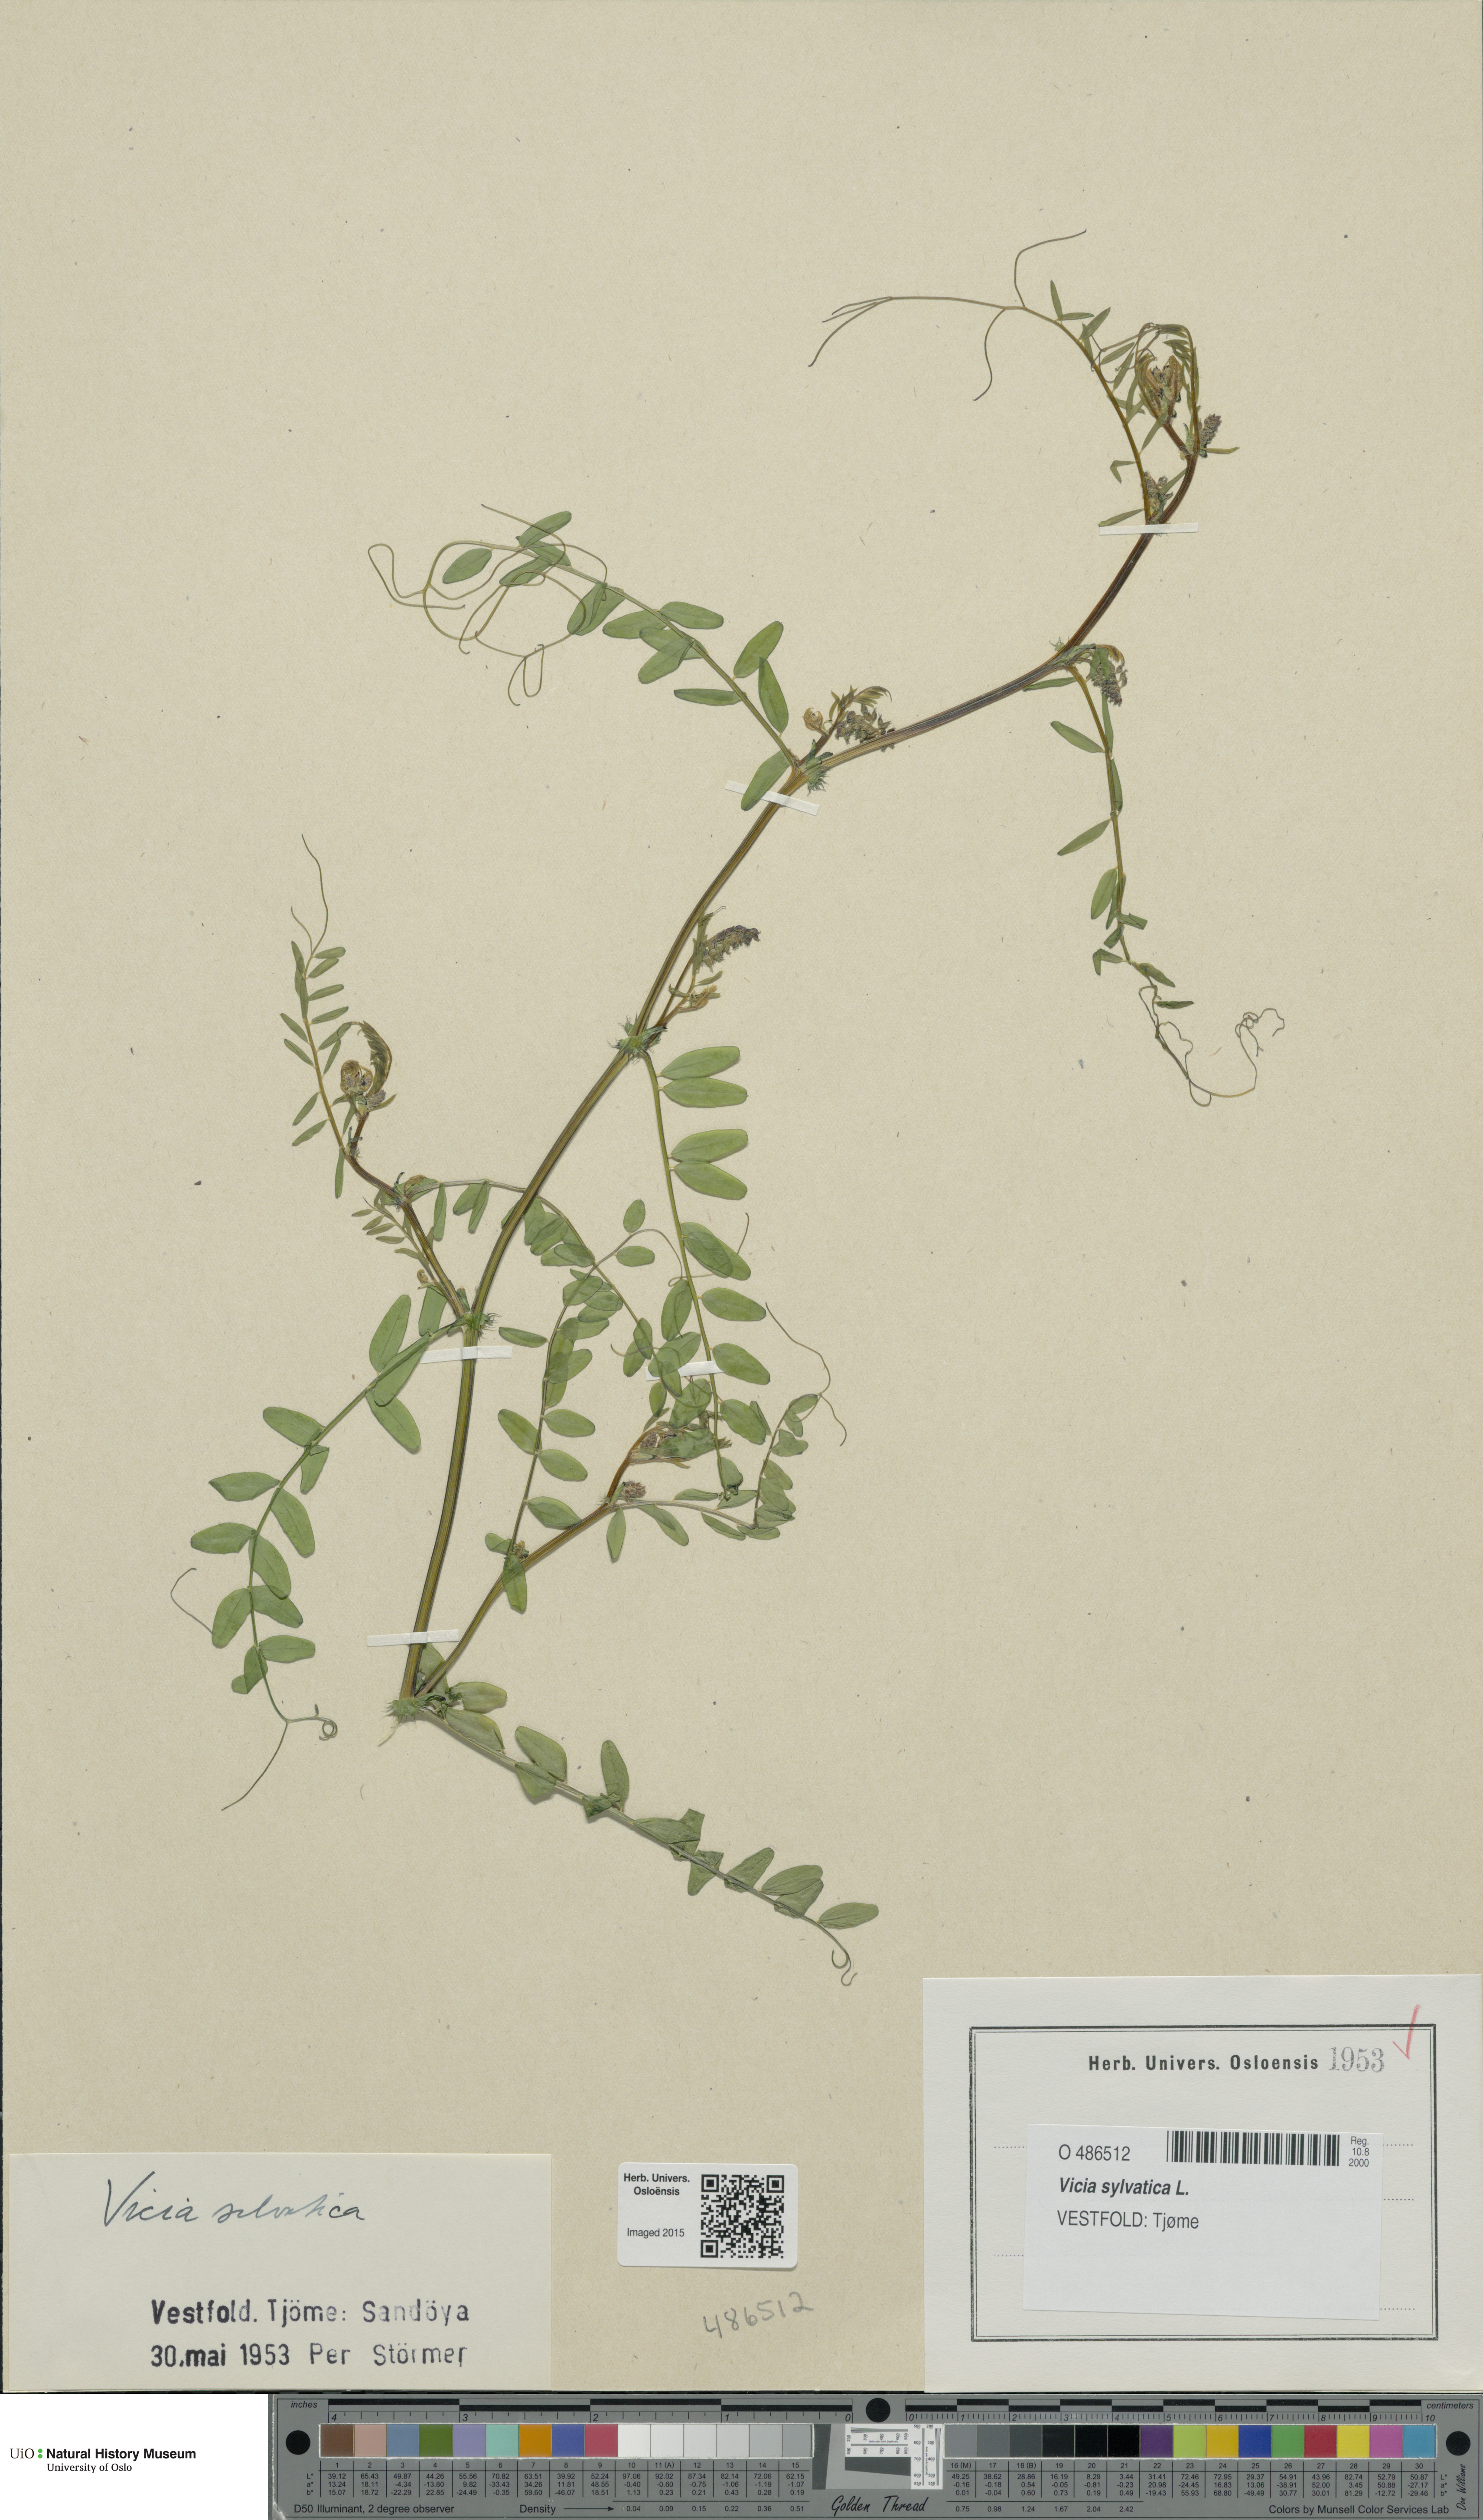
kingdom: Plantae
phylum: Tracheophyta
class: Magnoliopsida
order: Fabales
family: Fabaceae
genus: Vicia
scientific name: Vicia sylvatica
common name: Wood vetch
